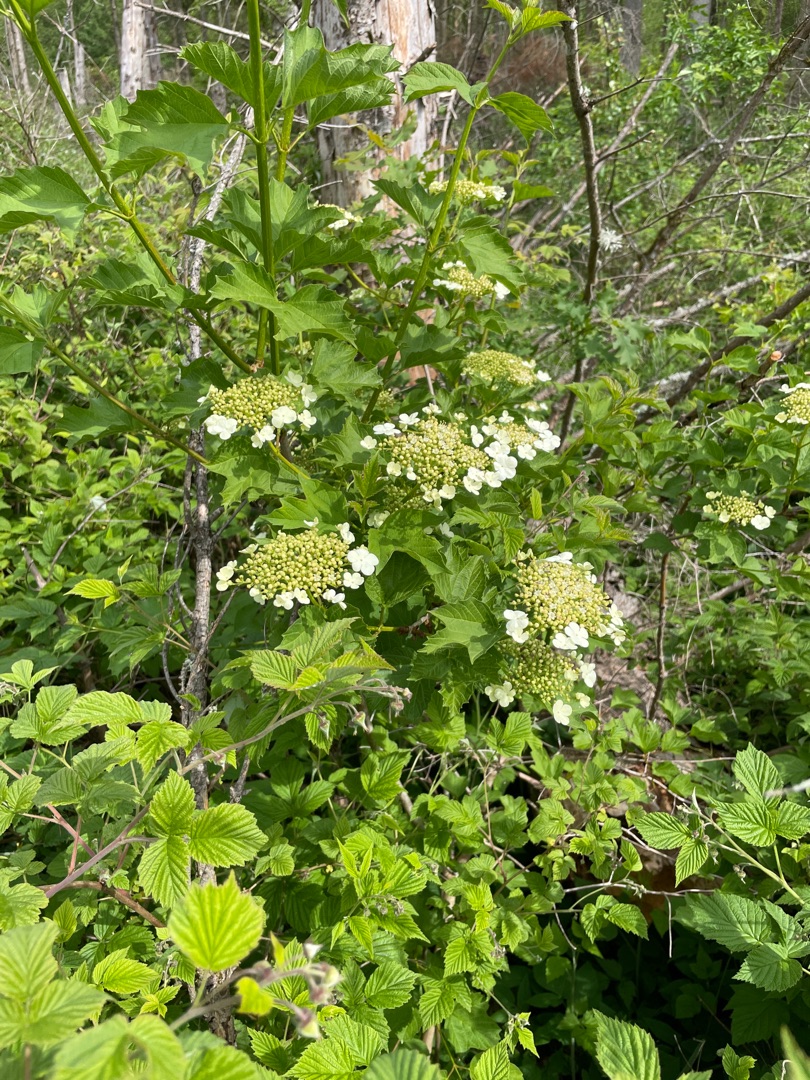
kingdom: Plantae
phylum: Tracheophyta
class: Magnoliopsida
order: Dipsacales
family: Viburnaceae
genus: Viburnum
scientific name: Viburnum opulus
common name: Kvalkved
